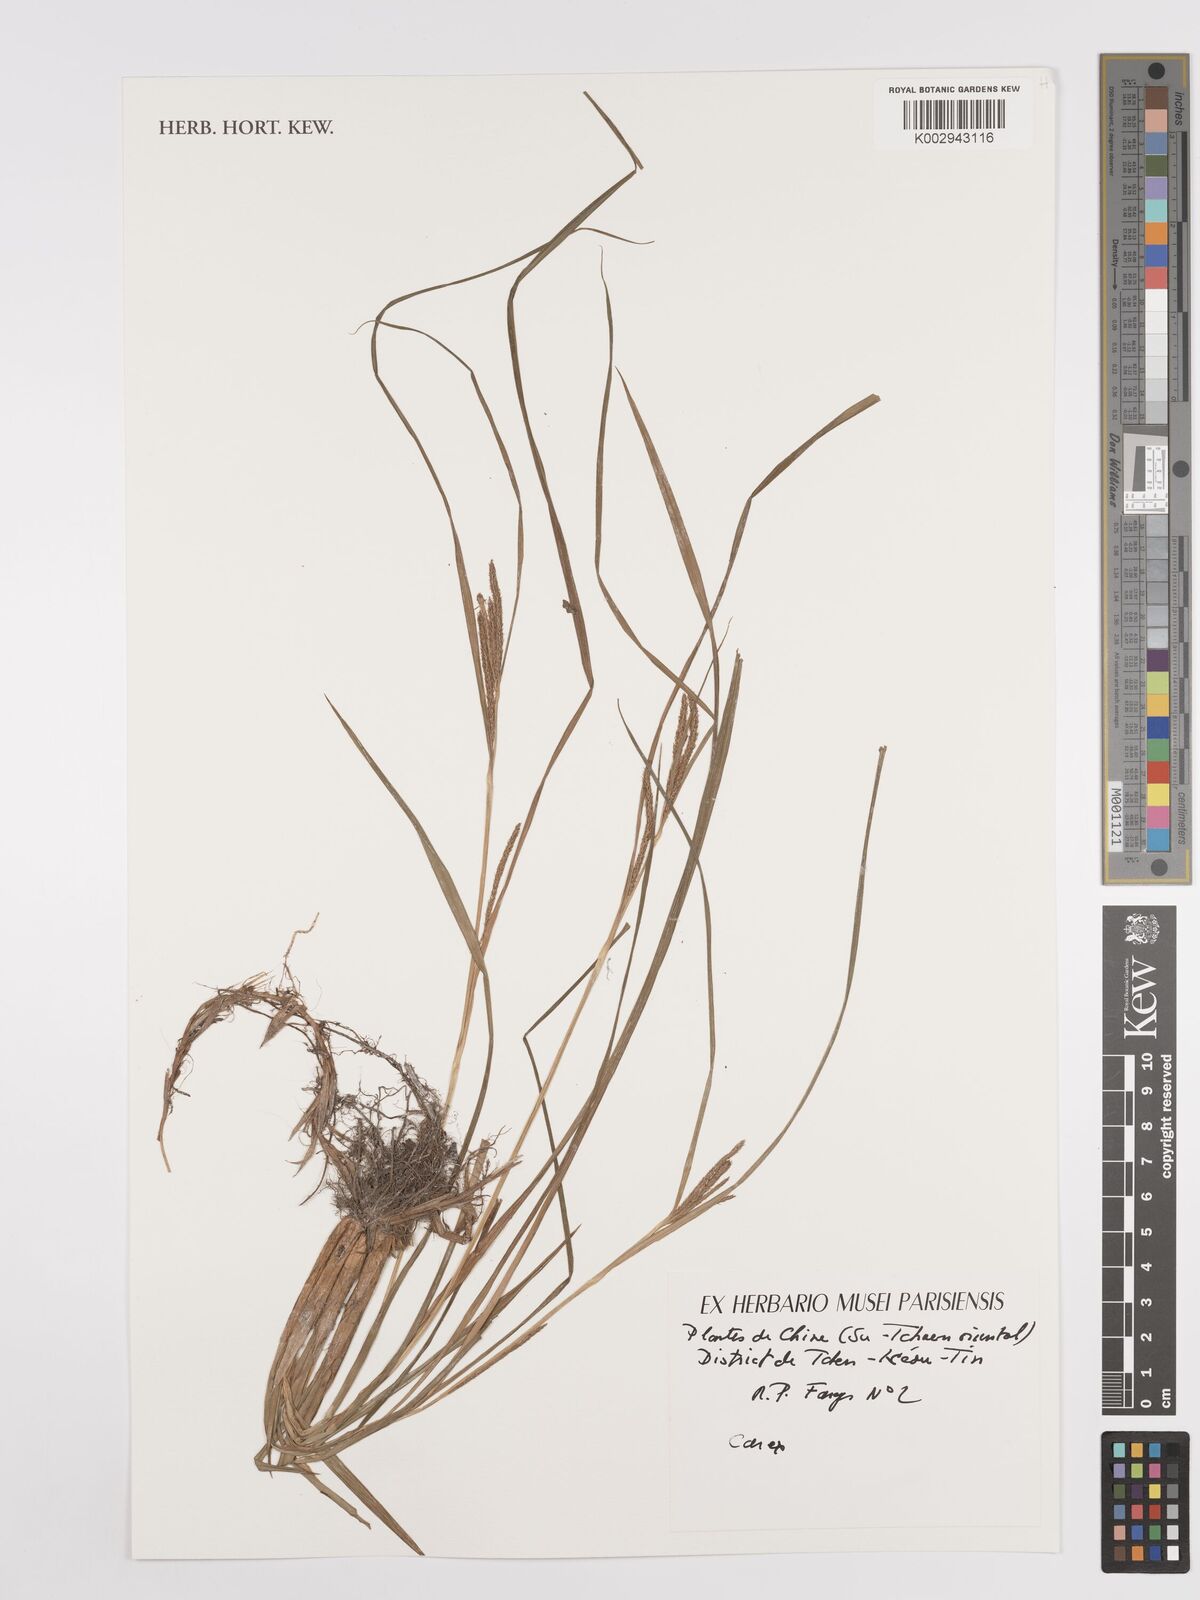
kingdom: Plantae
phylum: Tracheophyta
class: Liliopsida
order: Poales
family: Cyperaceae
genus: Carex
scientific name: Carex
